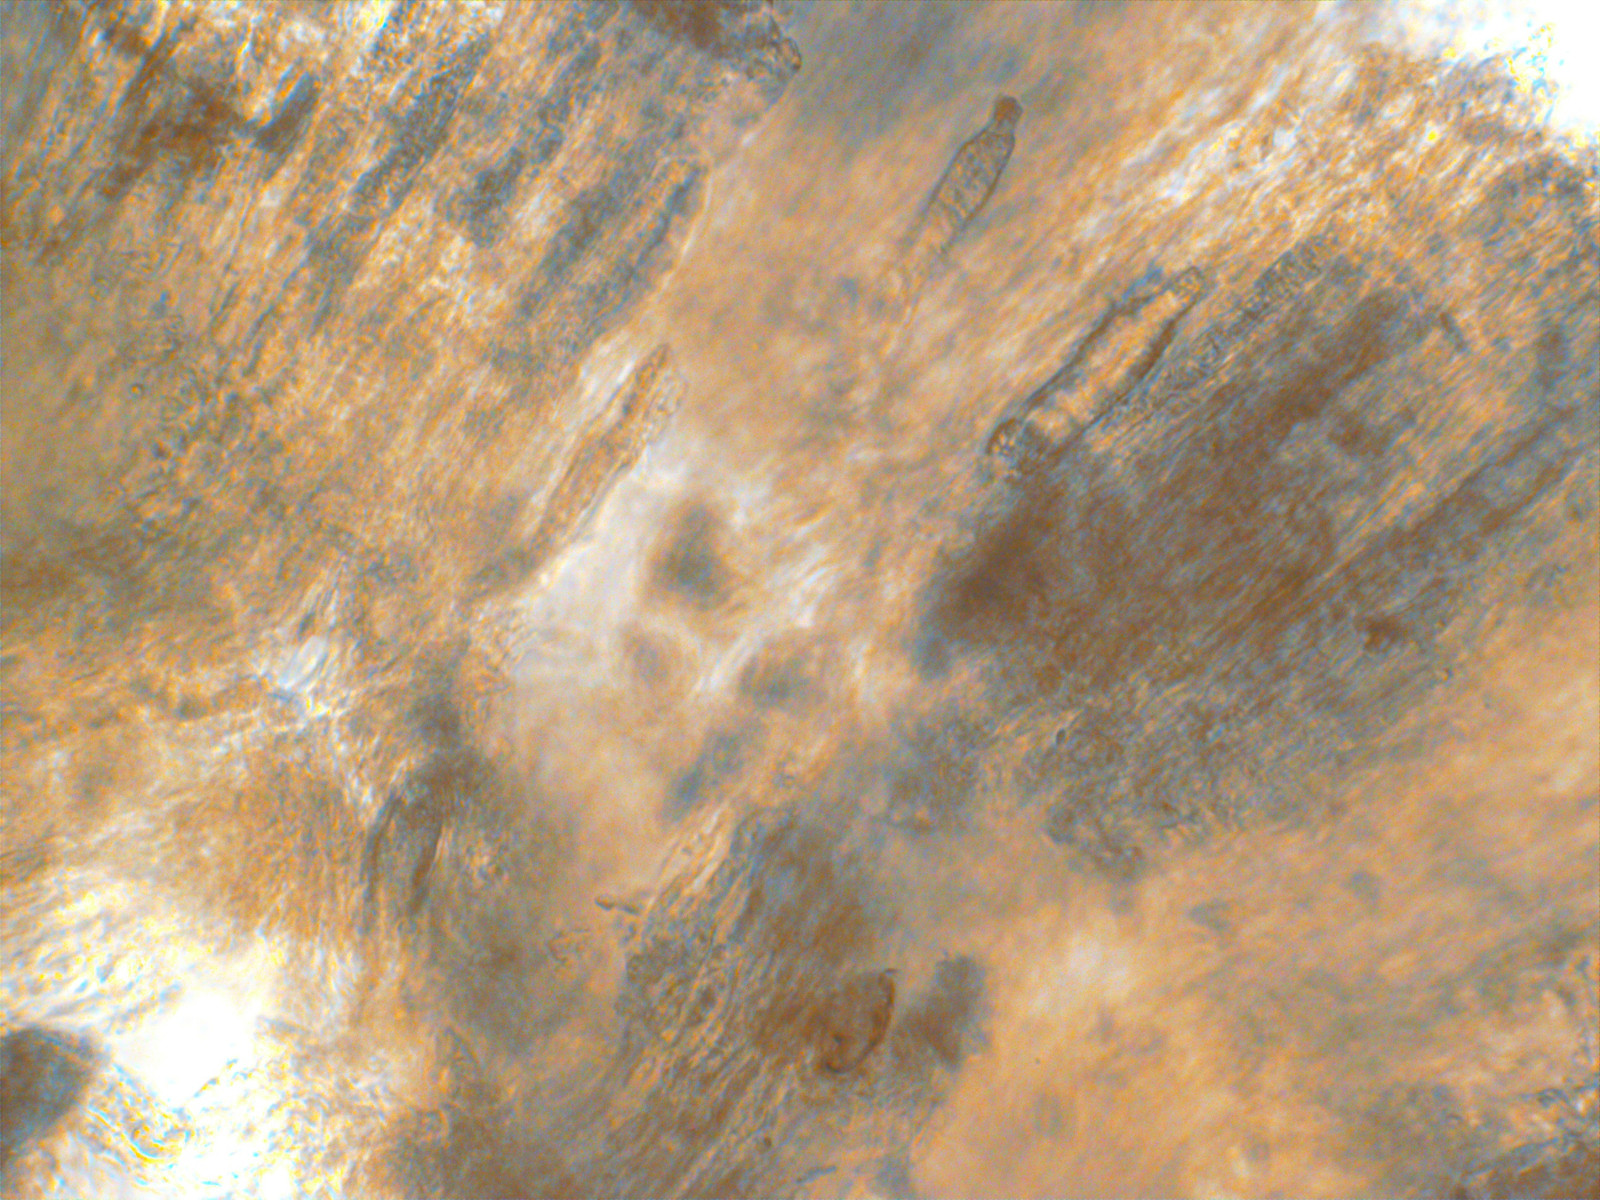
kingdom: Fungi
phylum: Basidiomycota
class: Agaricomycetes
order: Russulales
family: Peniophoraceae
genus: Peniophora
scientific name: Peniophora incarnata
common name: laksefarvet voksskind
